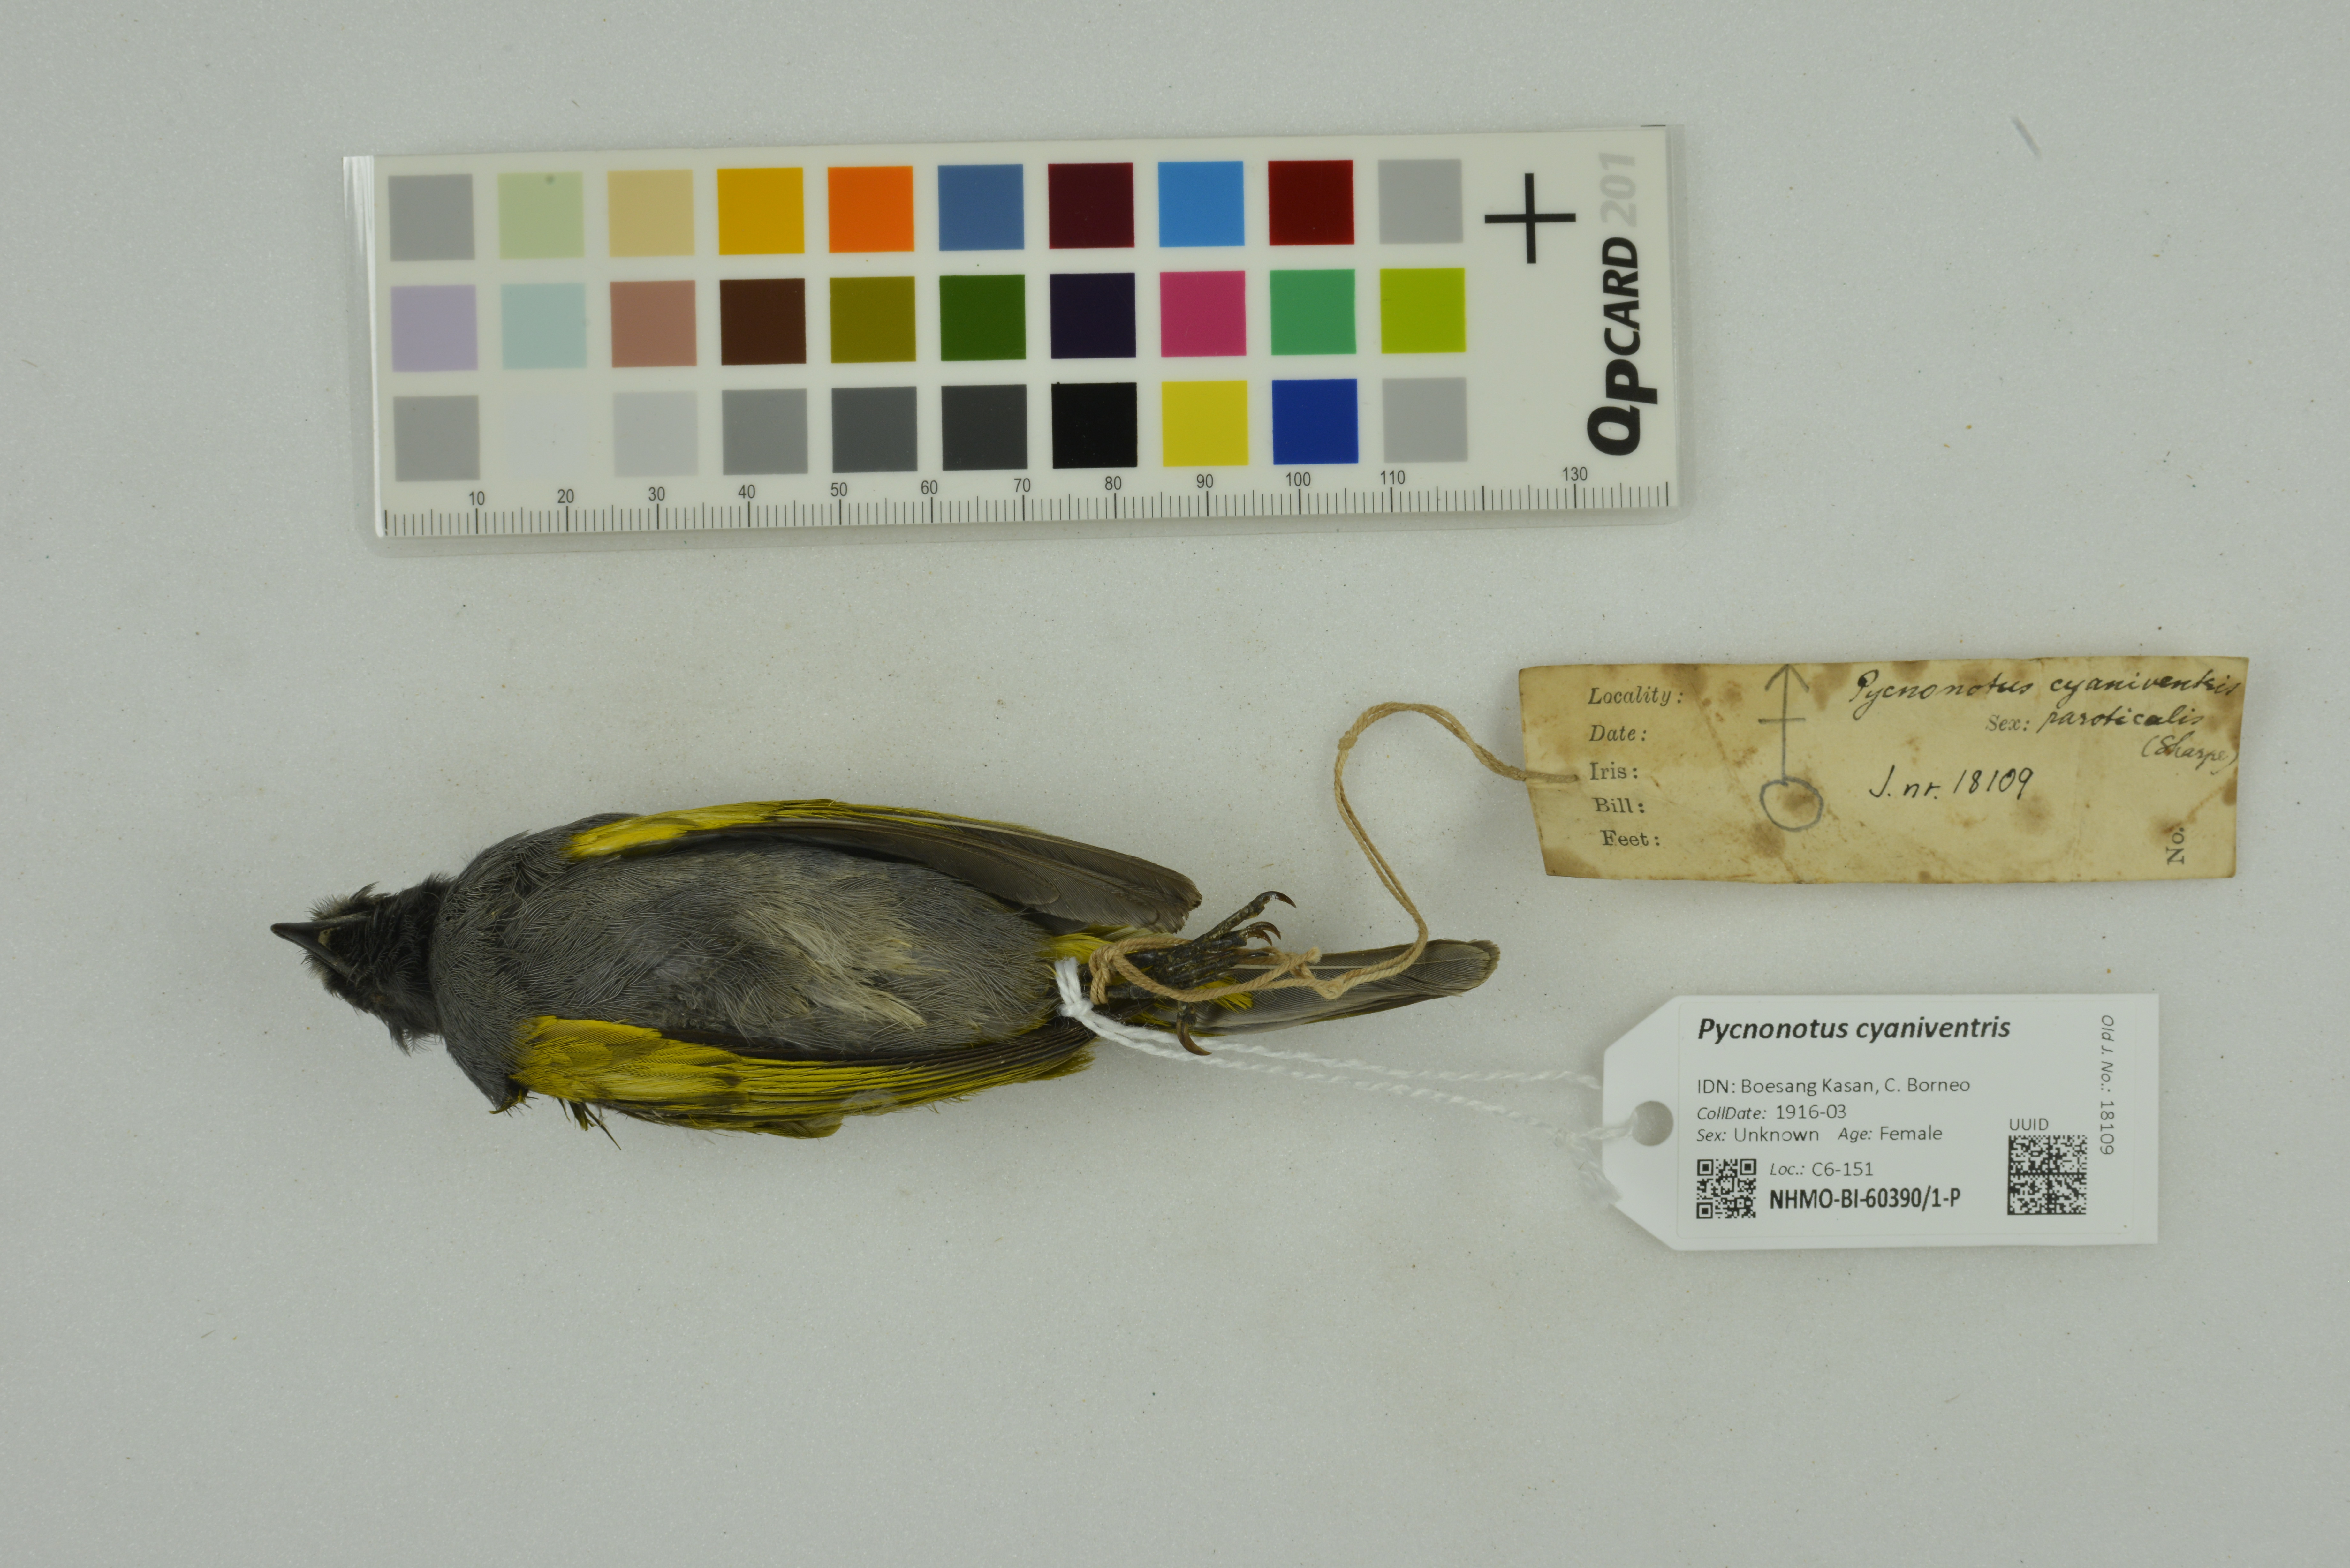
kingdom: Animalia
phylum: Chordata
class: Aves
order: Passeriformes
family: Pycnonotidae
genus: Pycnonotus
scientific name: Pycnonotus cyaniventris
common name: Grey-bellied bulbul
